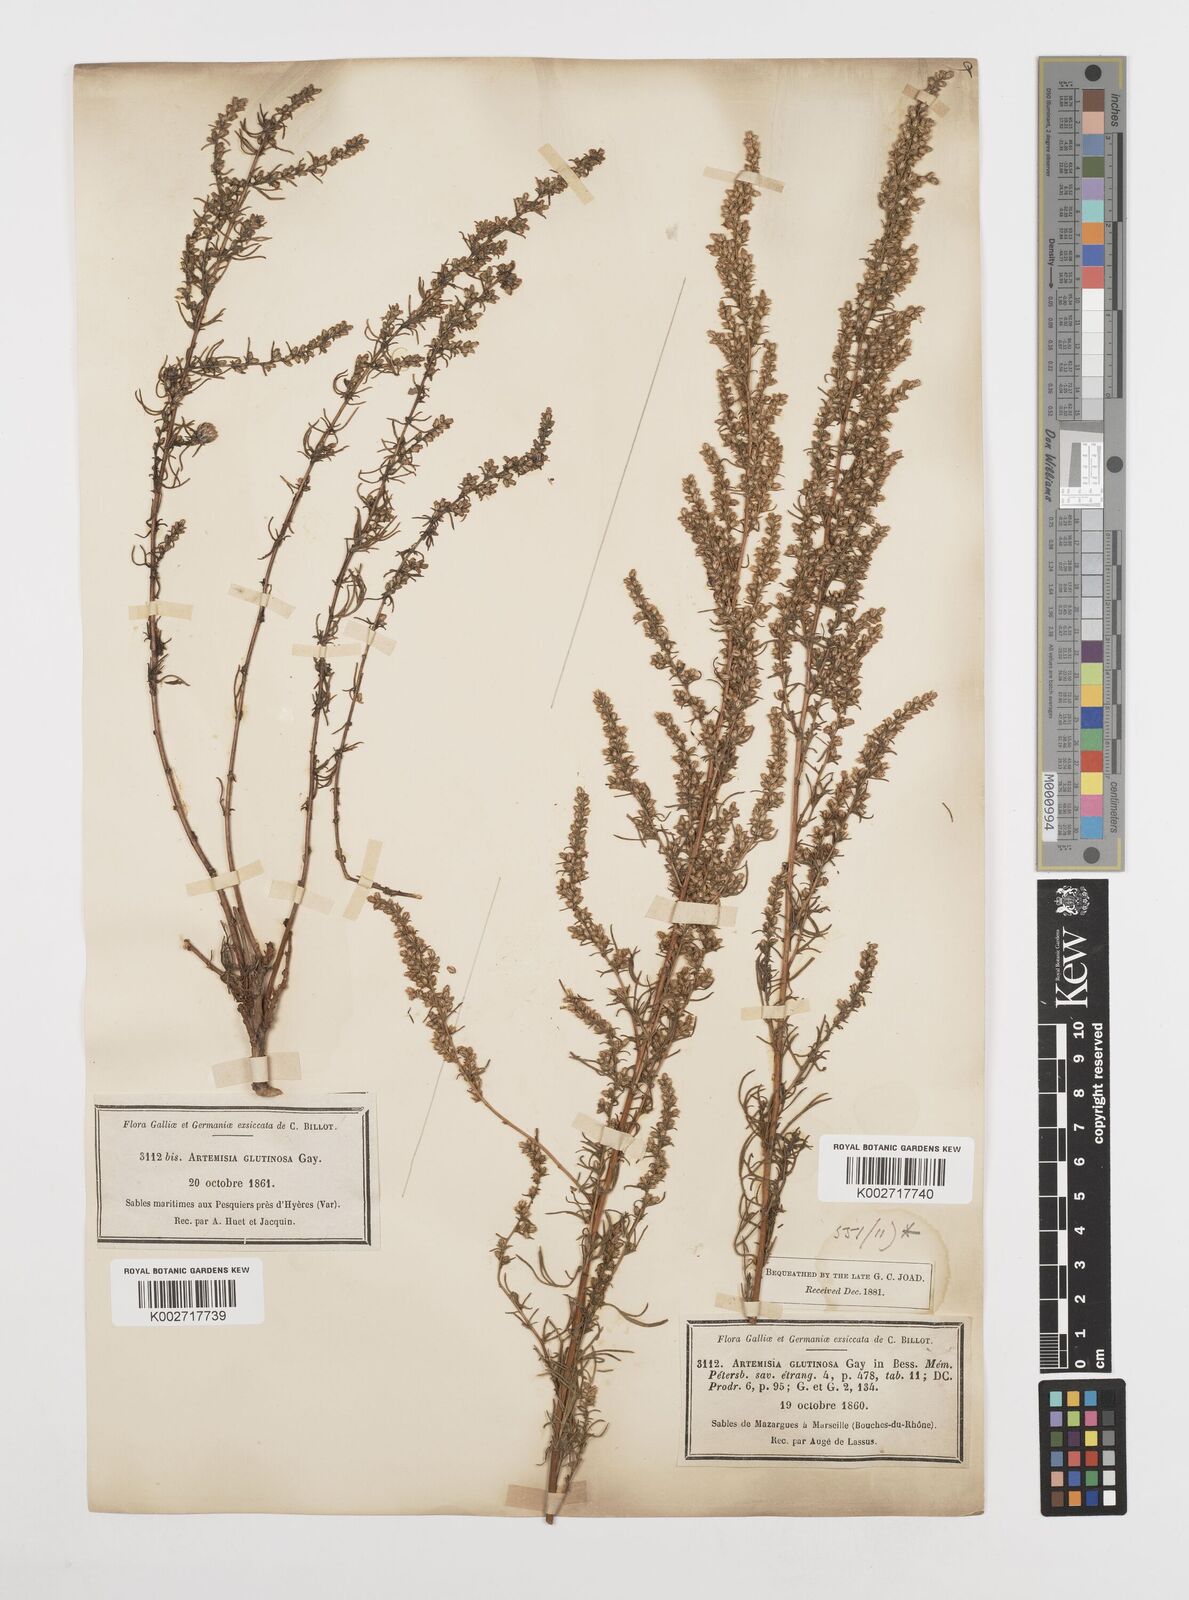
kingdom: Plantae
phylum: Tracheophyta
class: Magnoliopsida
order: Asterales
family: Asteraceae
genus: Artemisia
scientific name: Artemisia campestris
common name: Field wormwood
